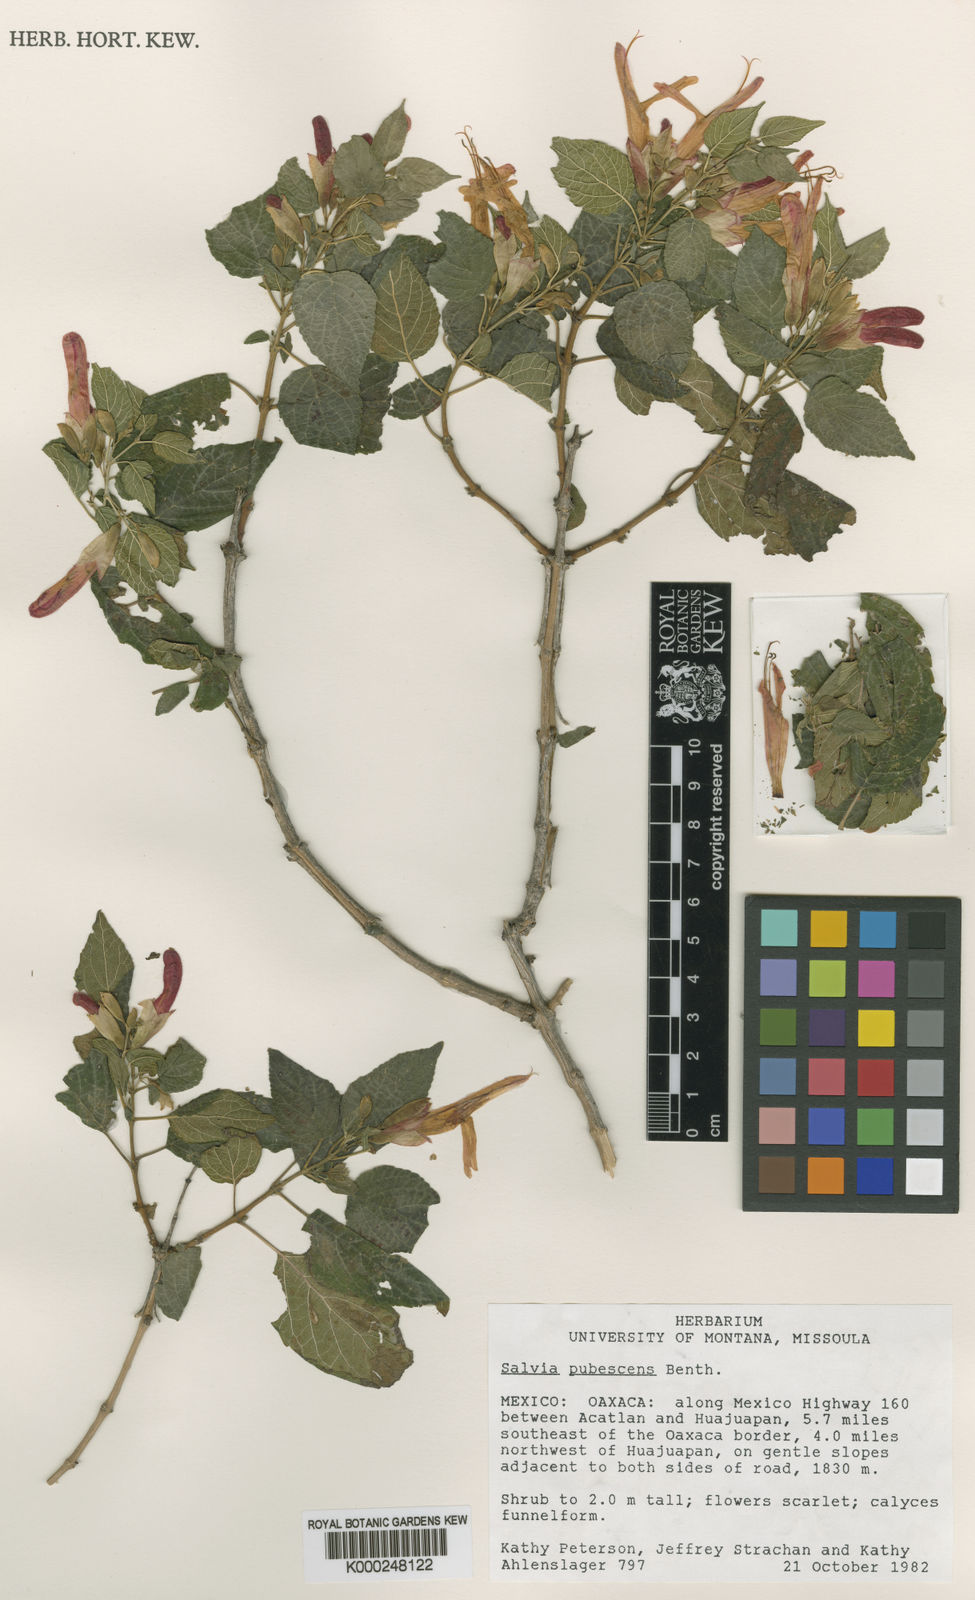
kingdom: Plantae
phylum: Tracheophyta
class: Magnoliopsida
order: Lamiales
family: Lamiaceae
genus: Salvia
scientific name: Salvia pubescens
